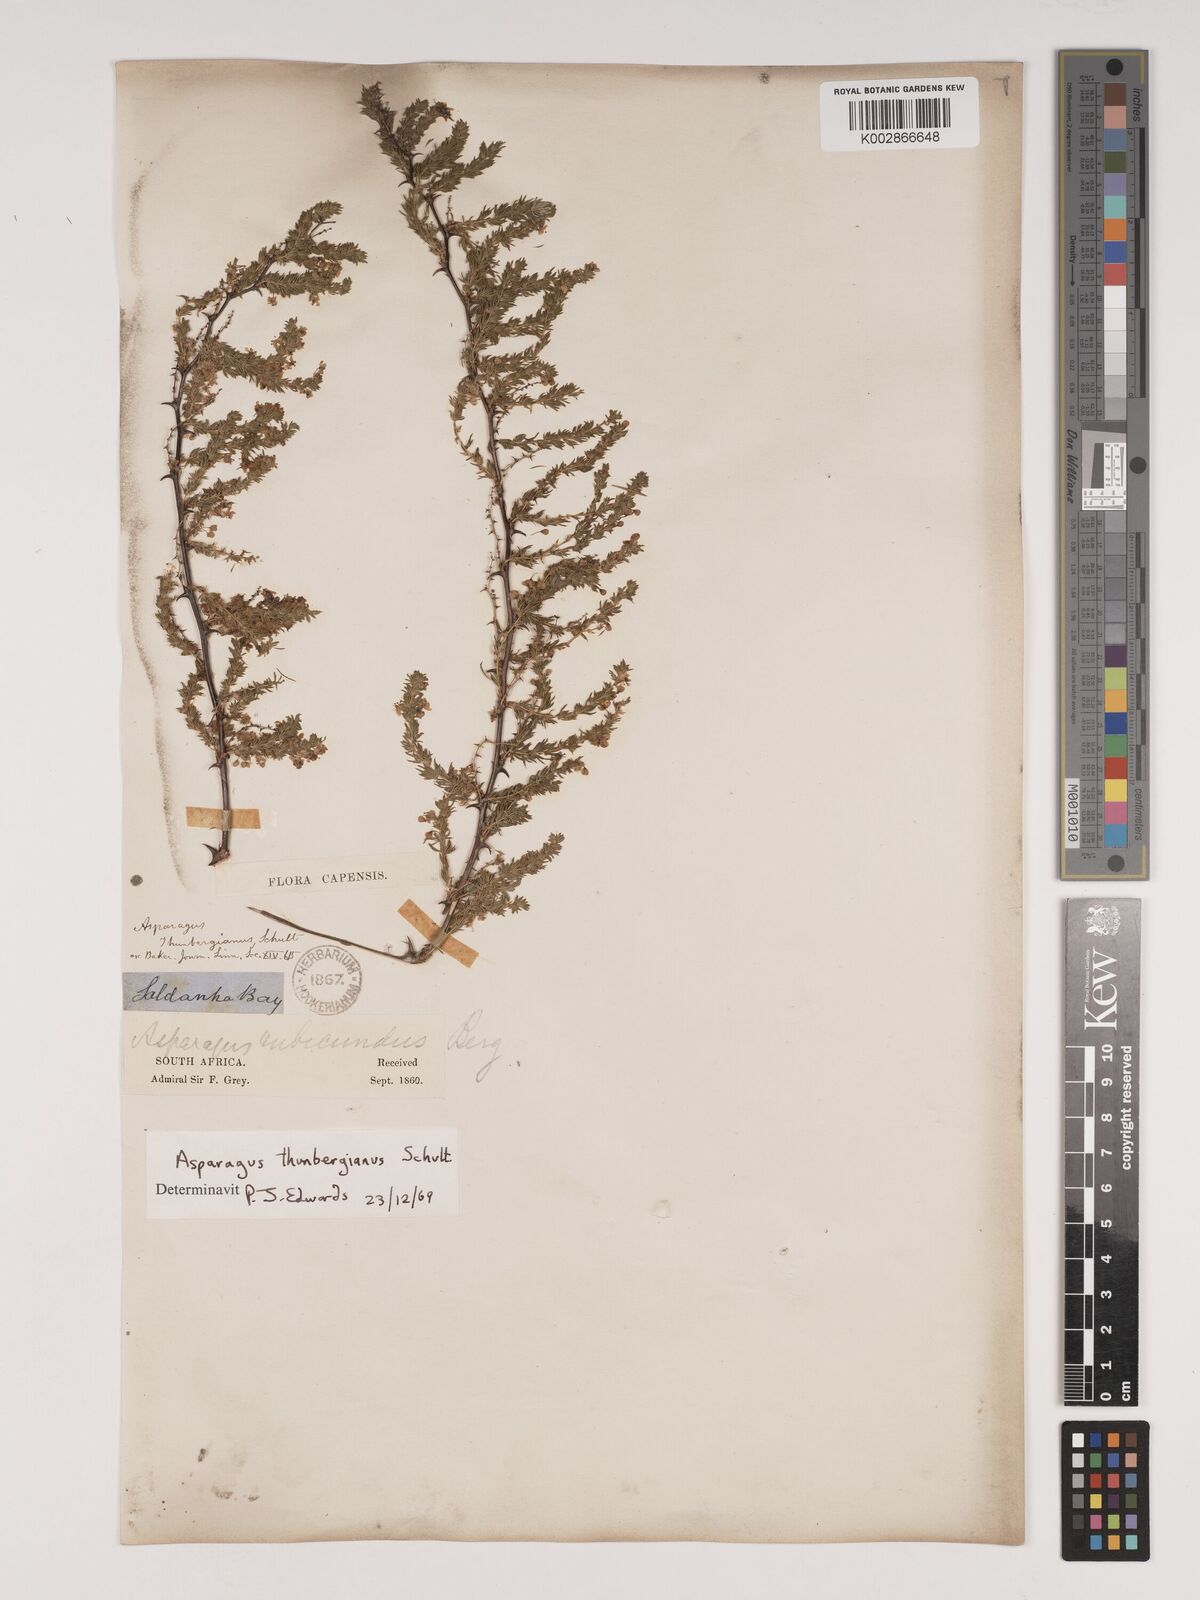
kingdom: Plantae
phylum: Tracheophyta
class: Liliopsida
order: Asparagales
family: Asparagaceae
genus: Asparagus
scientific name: Asparagus rubicundus
